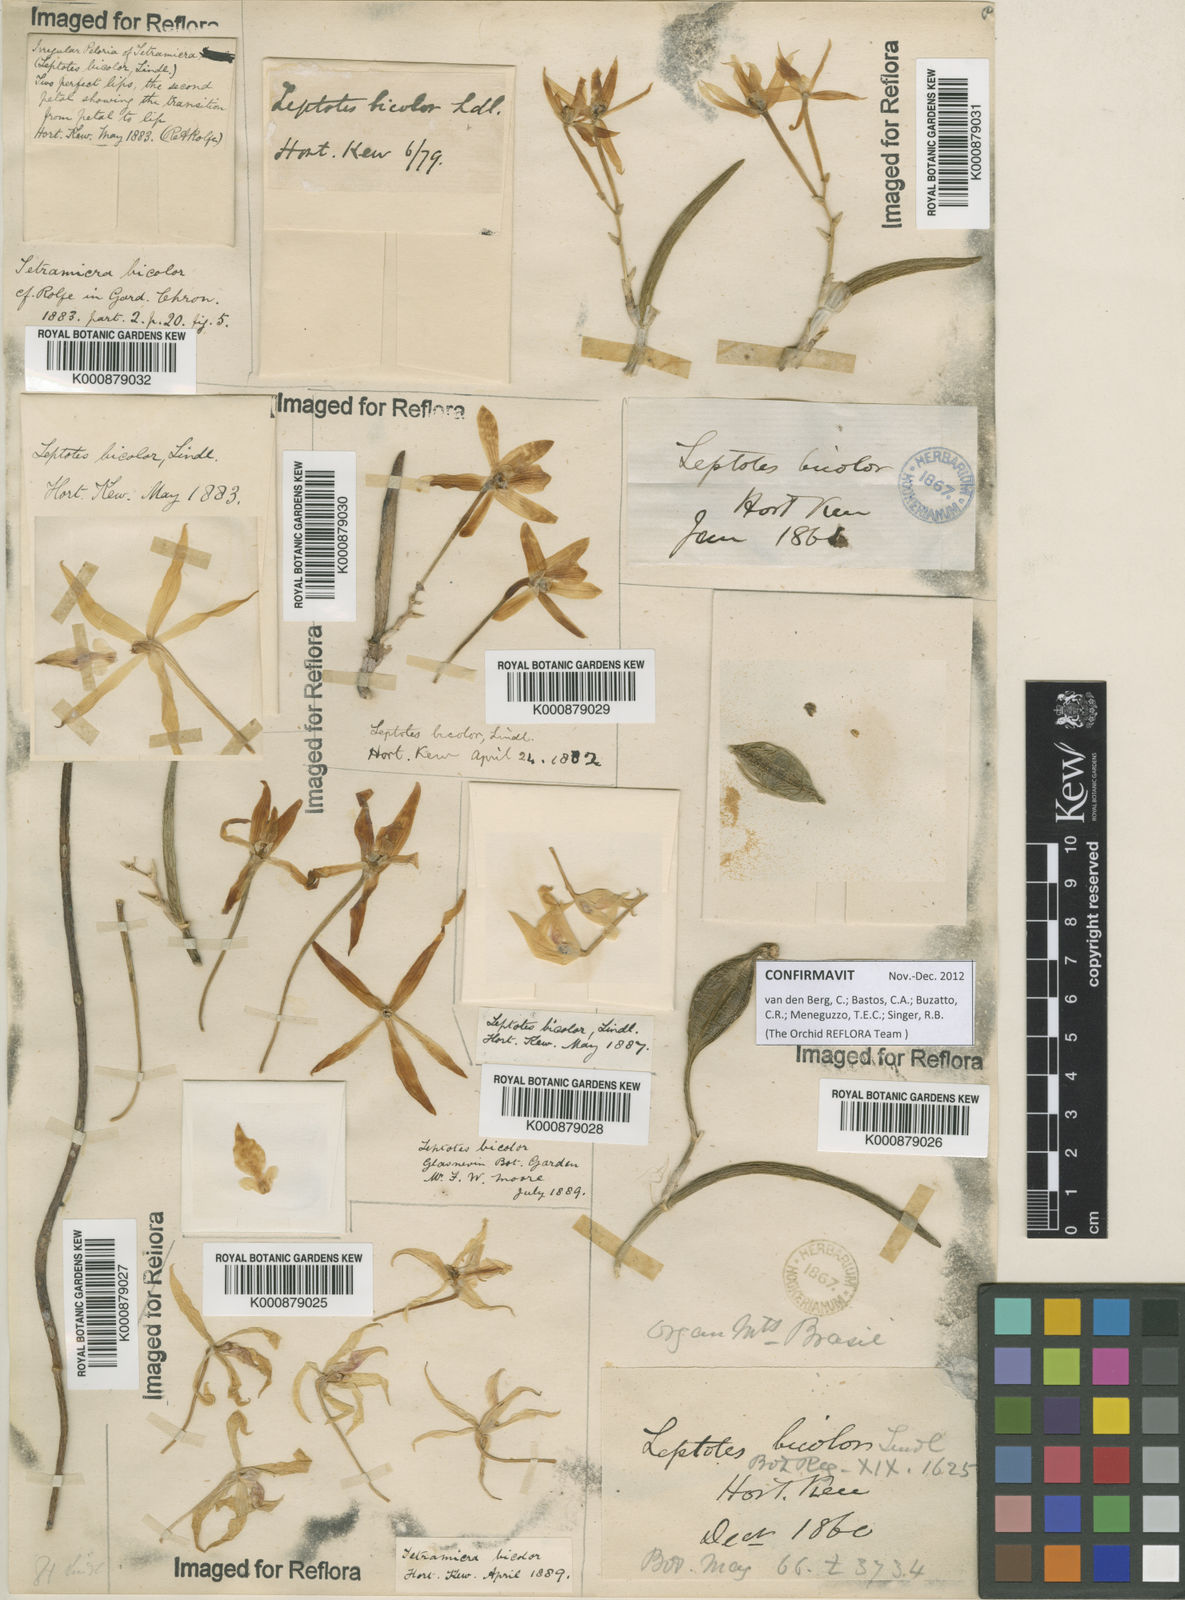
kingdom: Plantae
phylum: Tracheophyta
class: Liliopsida
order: Asparagales
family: Orchidaceae
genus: Leptotes
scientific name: Leptotes
